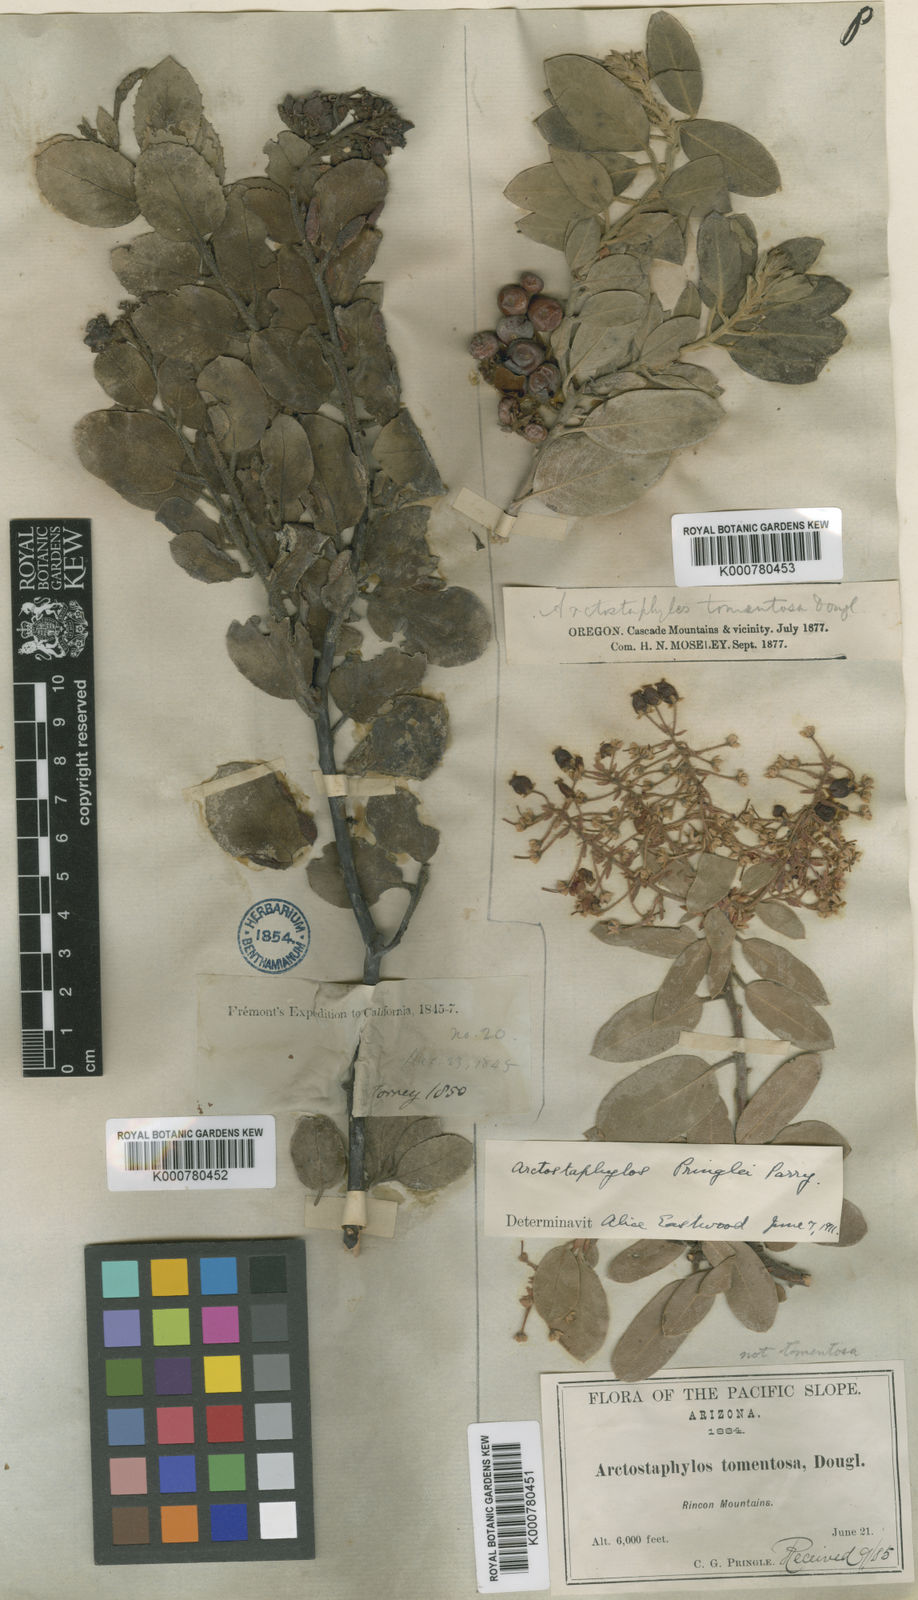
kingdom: Plantae
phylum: Tracheophyta
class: Magnoliopsida
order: Ericales
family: Ericaceae
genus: Arctostaphylos
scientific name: Arctostaphylos pringlei
